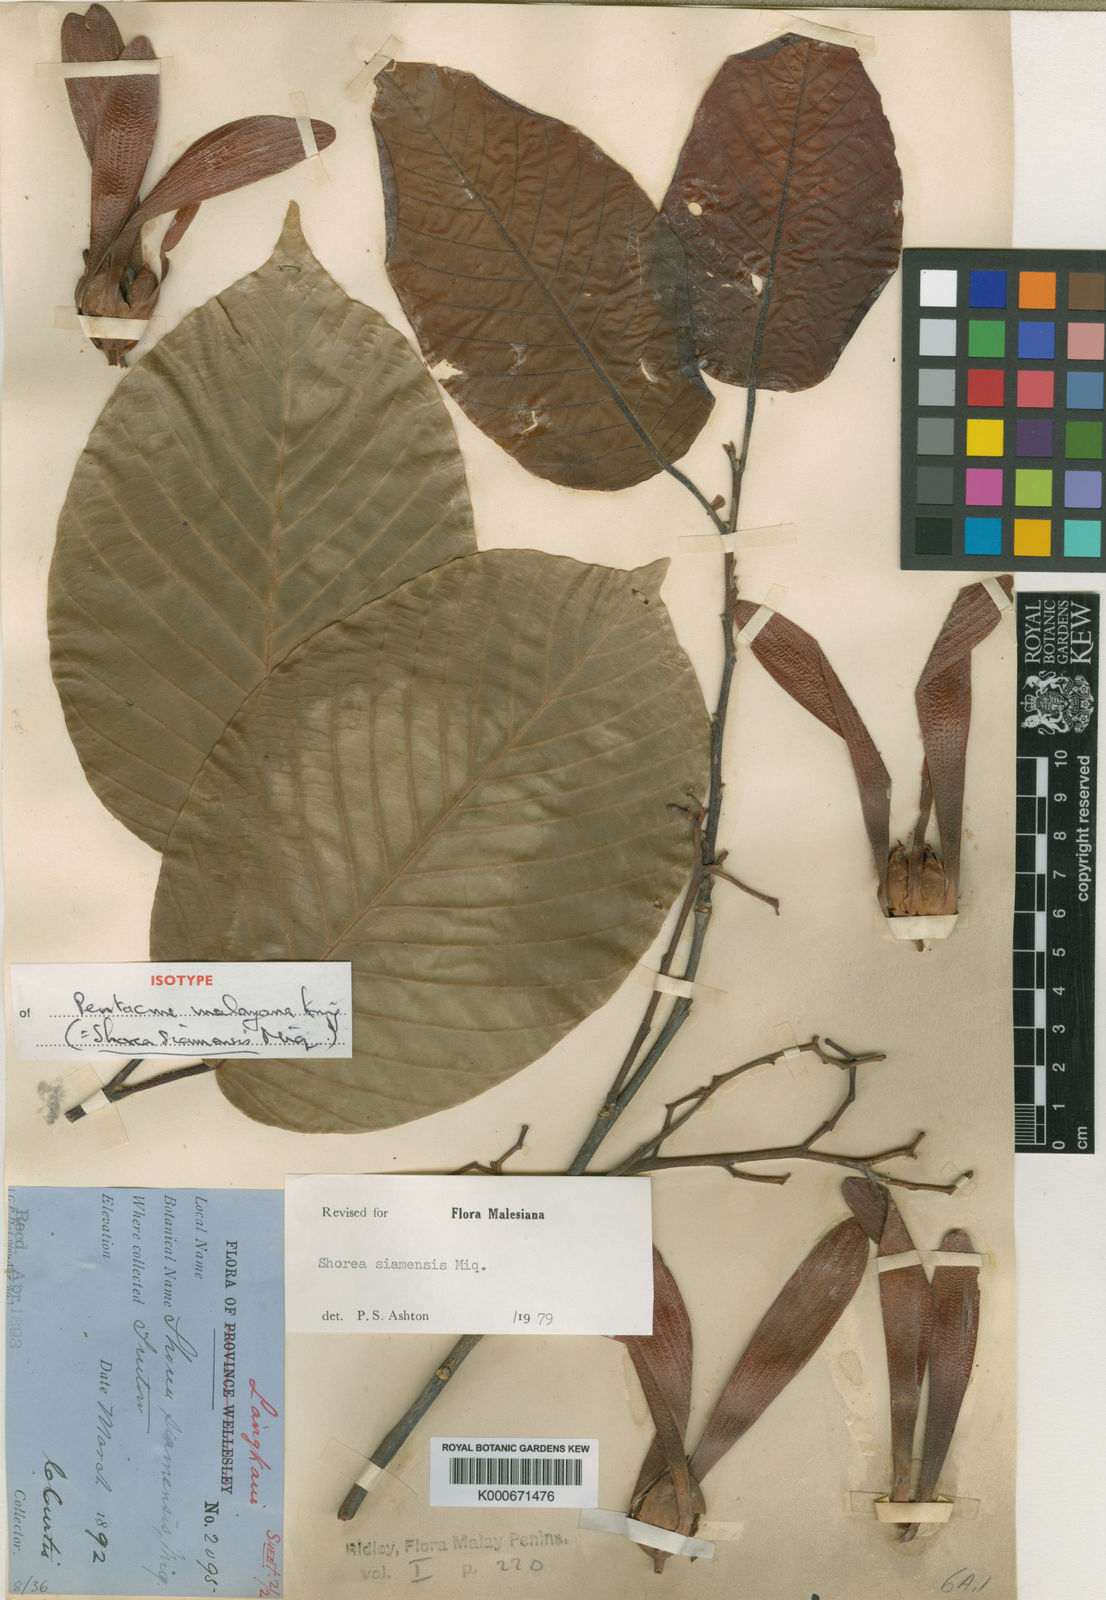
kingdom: Plantae
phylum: Tracheophyta
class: Magnoliopsida
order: Malvales
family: Dipterocarpaceae
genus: Pentacme
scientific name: Pentacme siamensis
